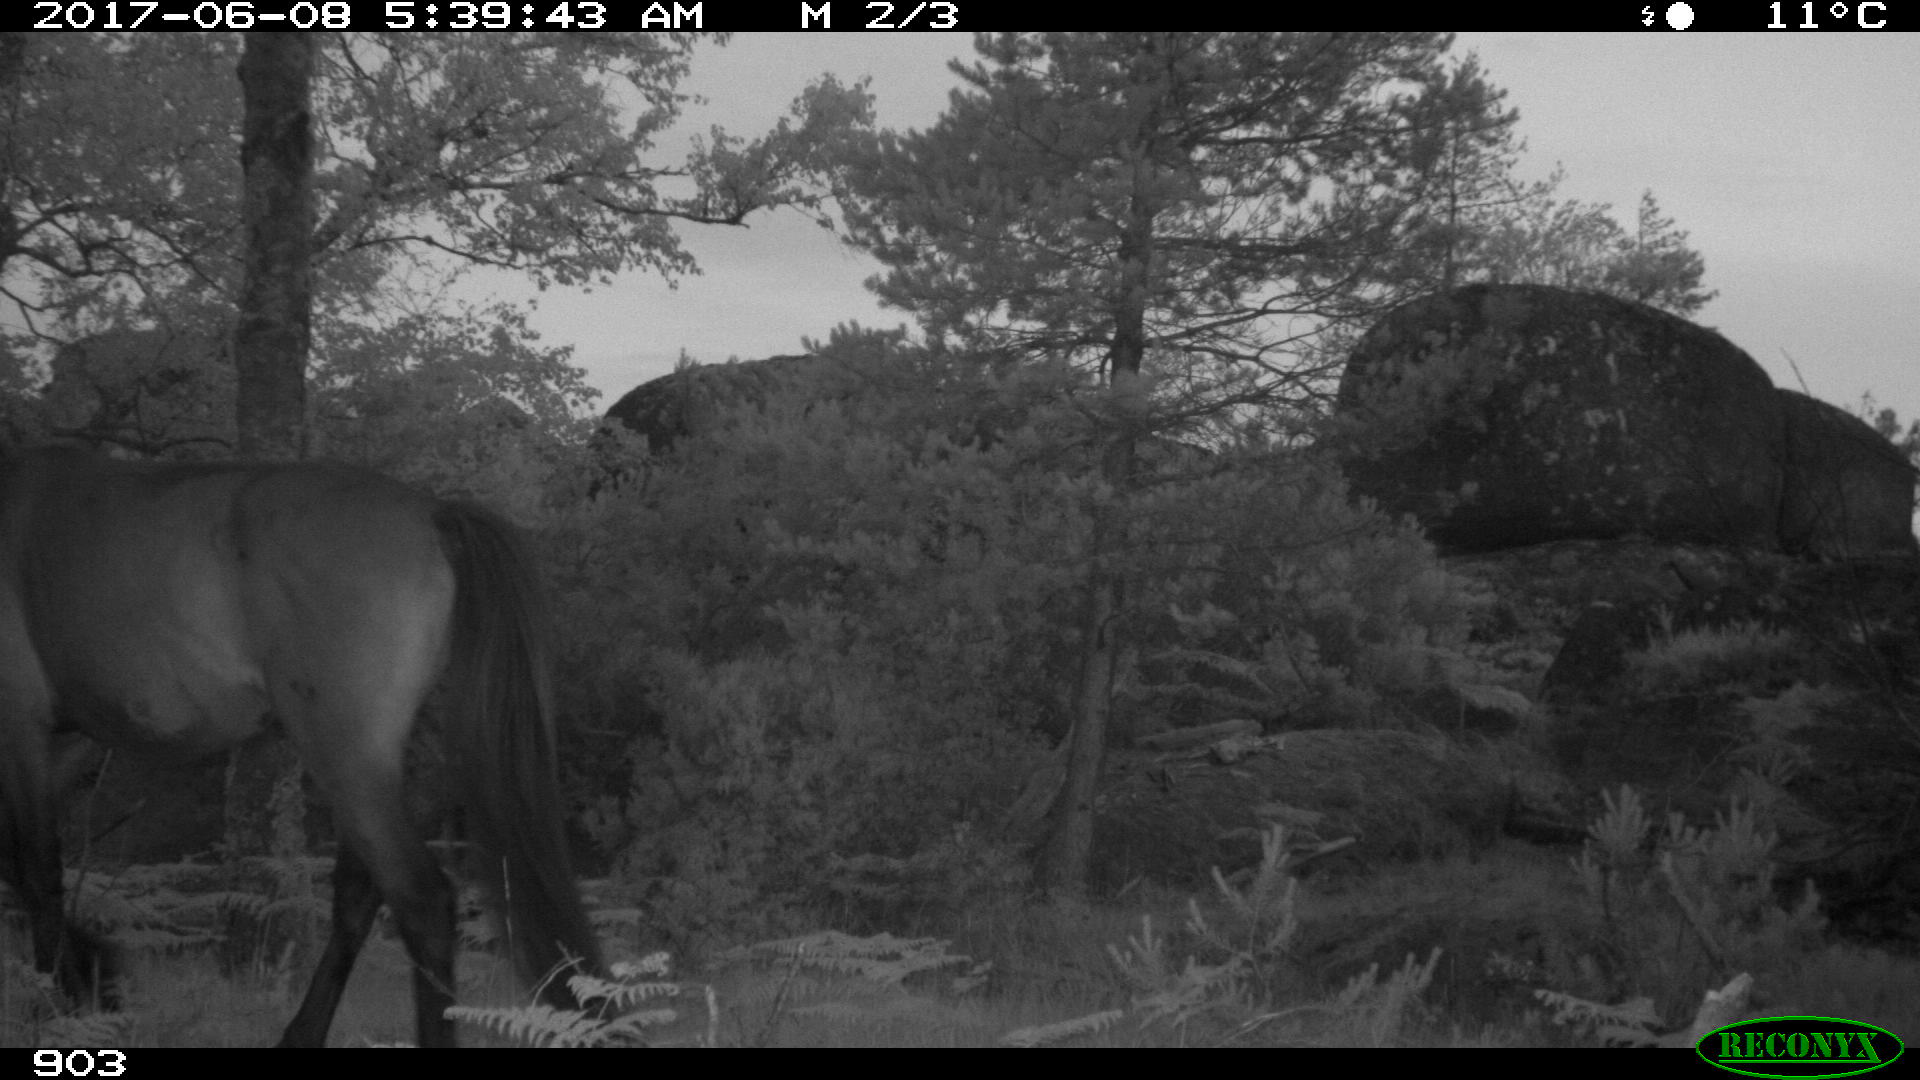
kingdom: Animalia
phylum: Chordata
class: Mammalia
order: Perissodactyla
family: Equidae
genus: Equus
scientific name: Equus caballus
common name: Horse
